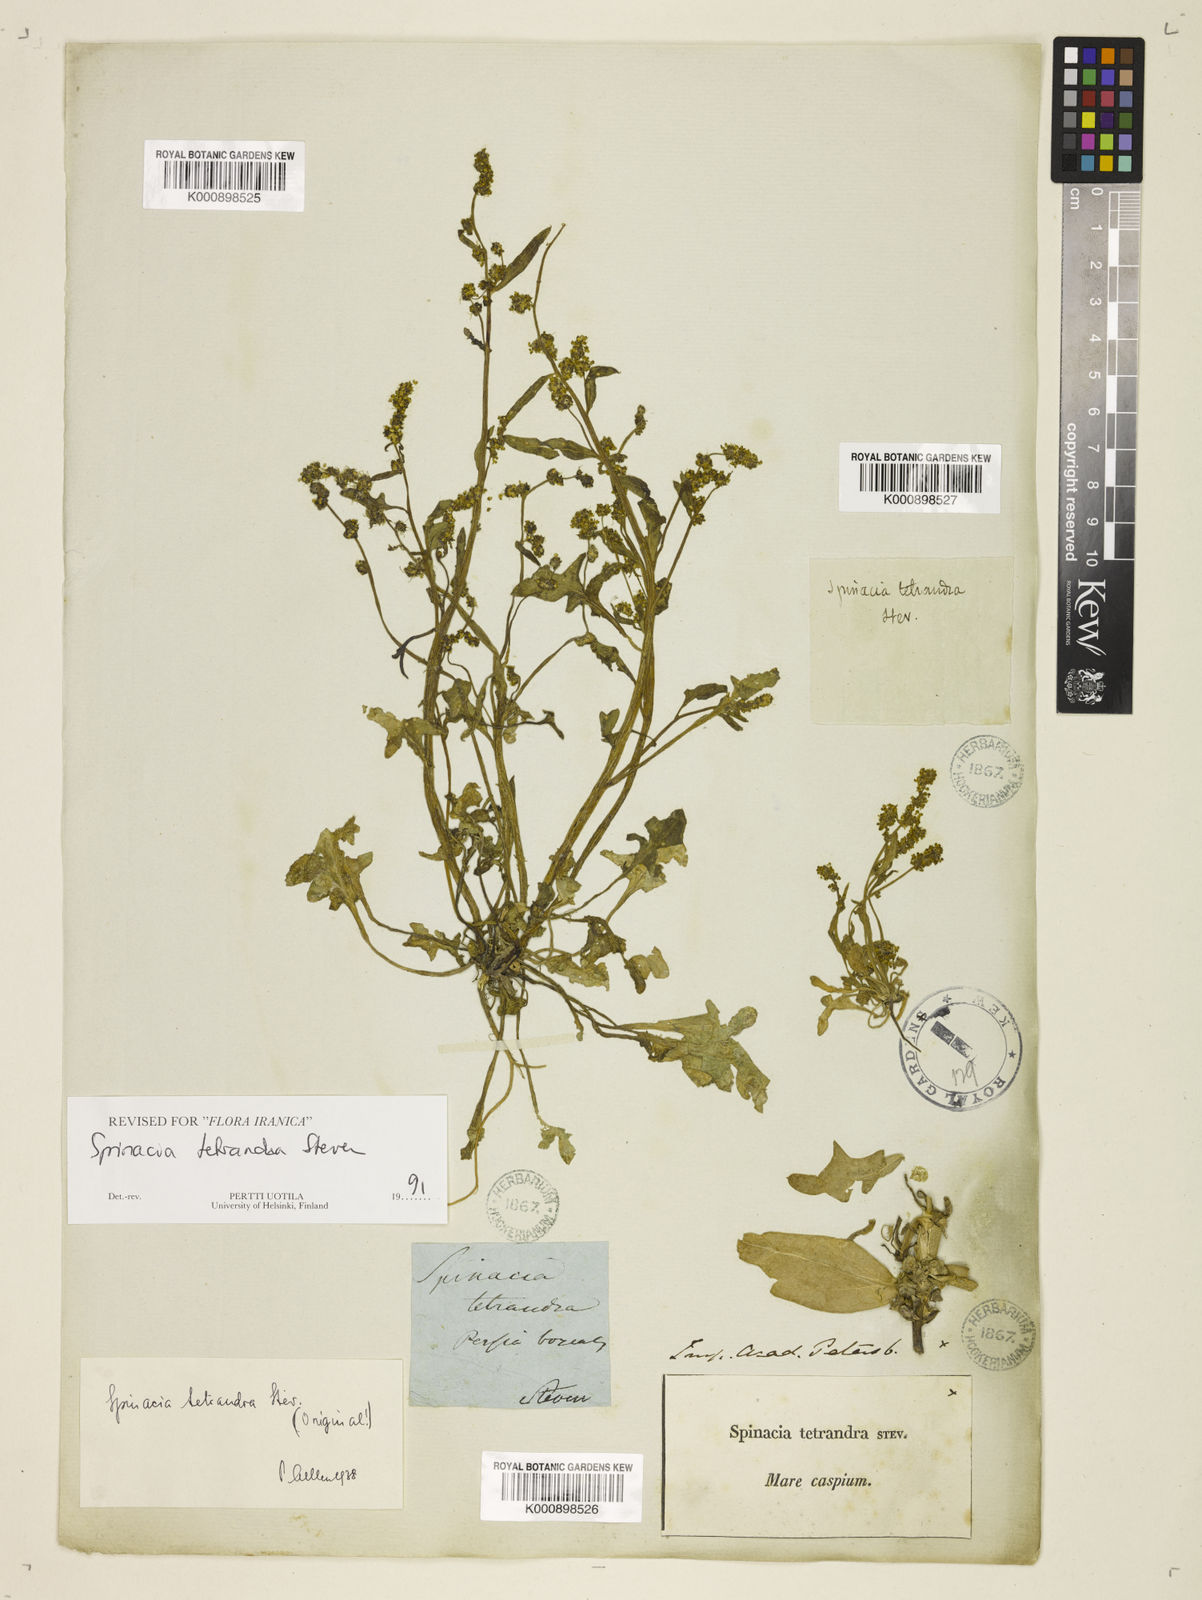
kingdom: Plantae
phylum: Tracheophyta
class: Magnoliopsida
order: Caryophyllales
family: Amaranthaceae
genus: Spinacia
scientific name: Spinacia tetrandra
